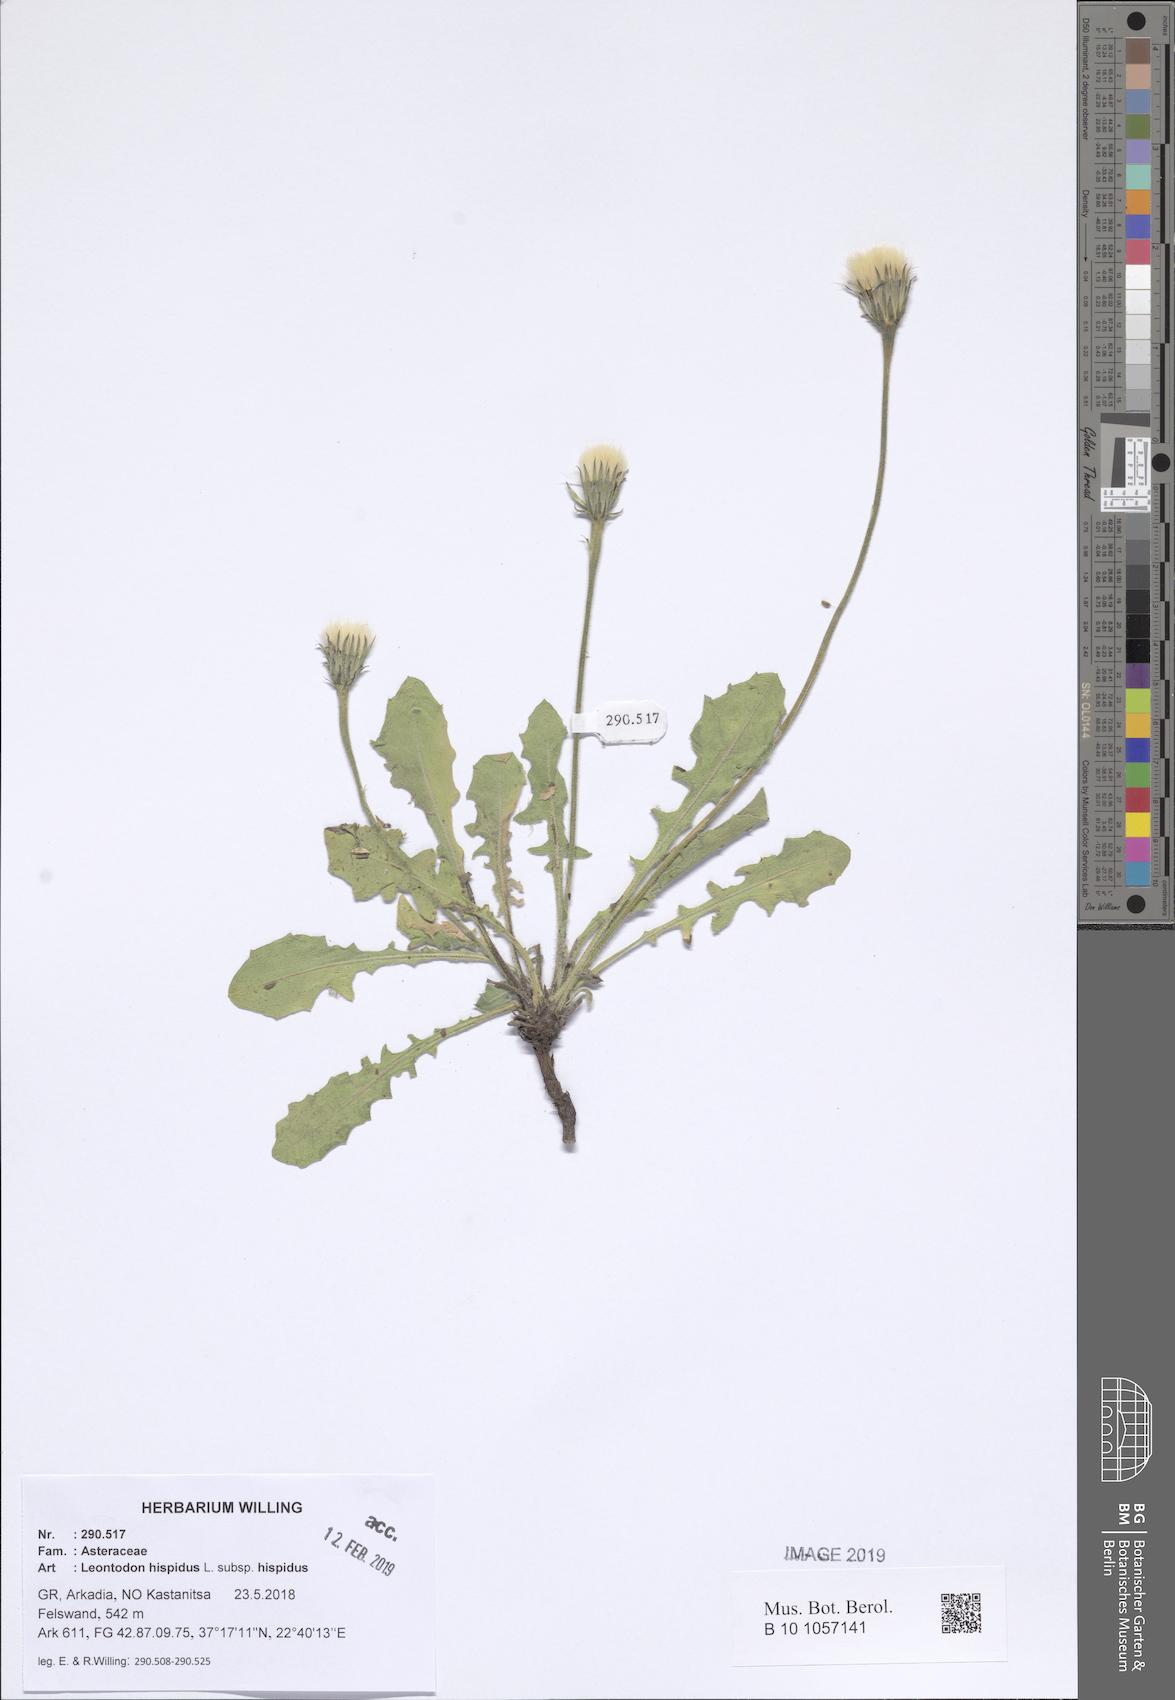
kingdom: Plantae
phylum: Tracheophyta
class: Magnoliopsida
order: Asterales
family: Asteraceae
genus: Leontodon
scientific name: Leontodon hispidus
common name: Rough hawkbit
